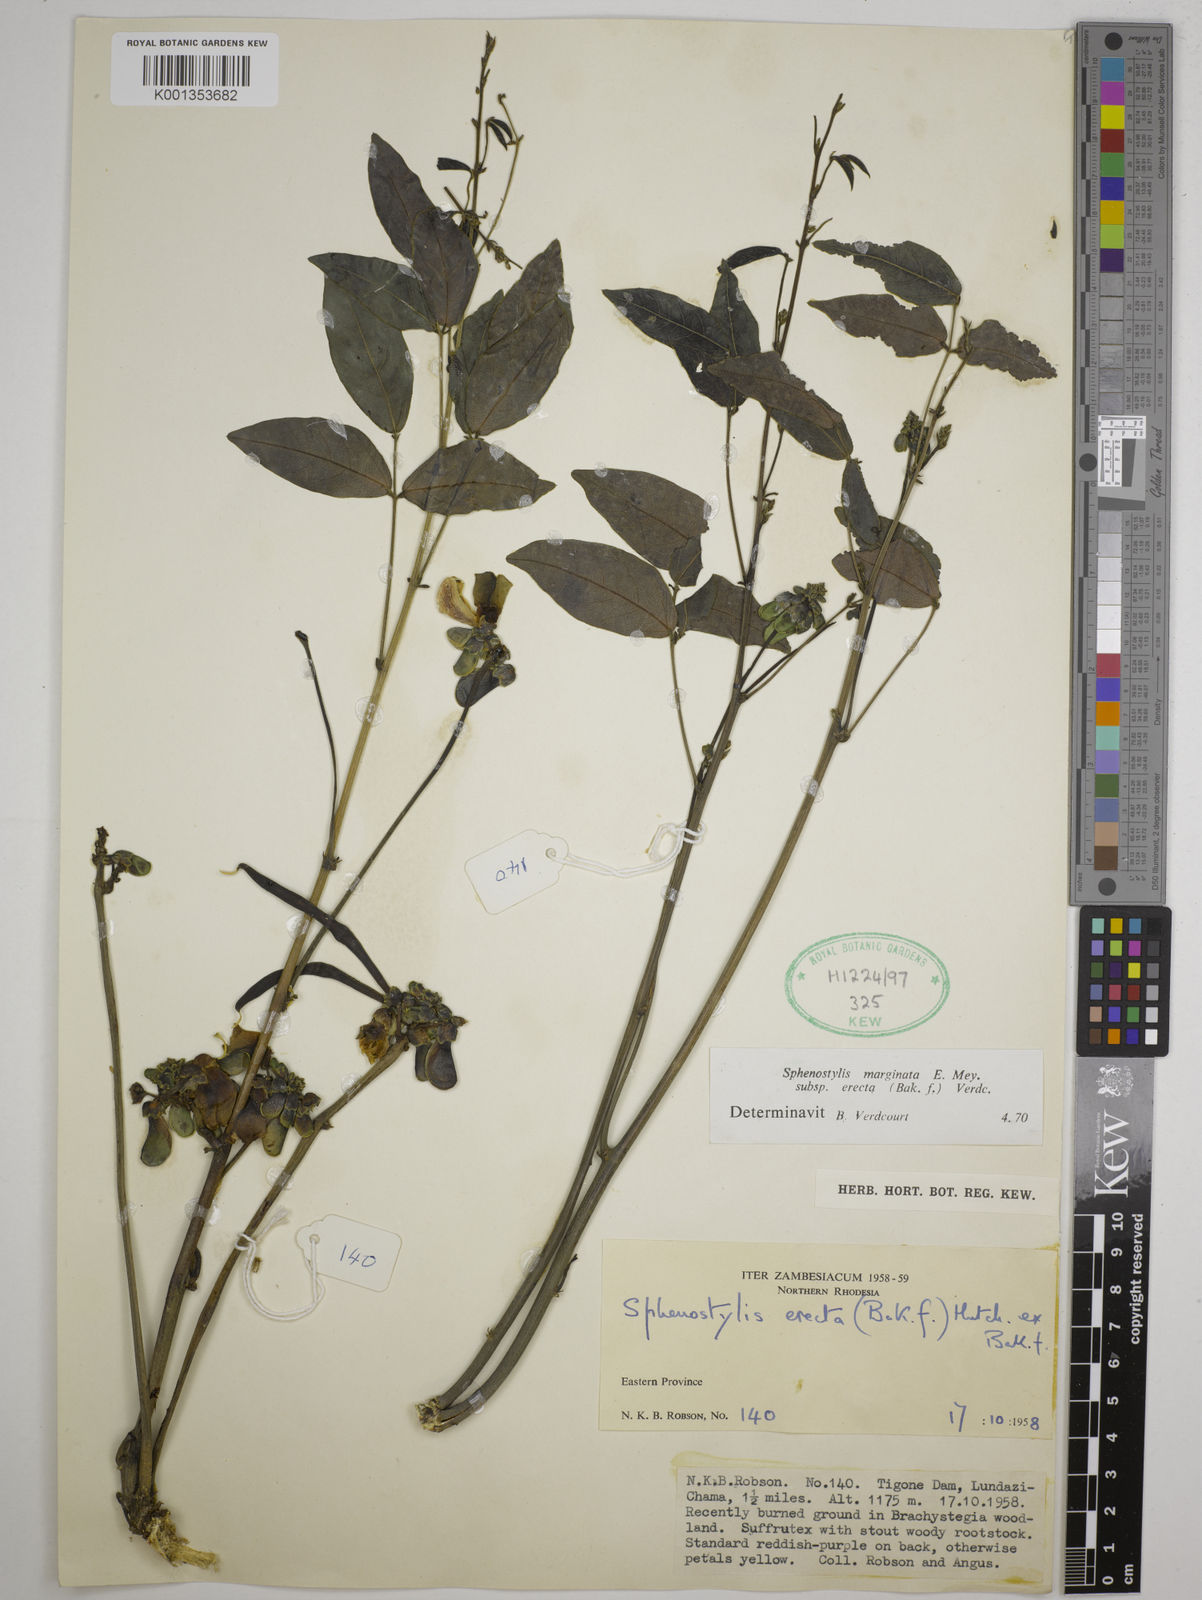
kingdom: Plantae
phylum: Tracheophyta
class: Magnoliopsida
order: Fabales
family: Fabaceae
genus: Sphenostylis
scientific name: Sphenostylis erecta
